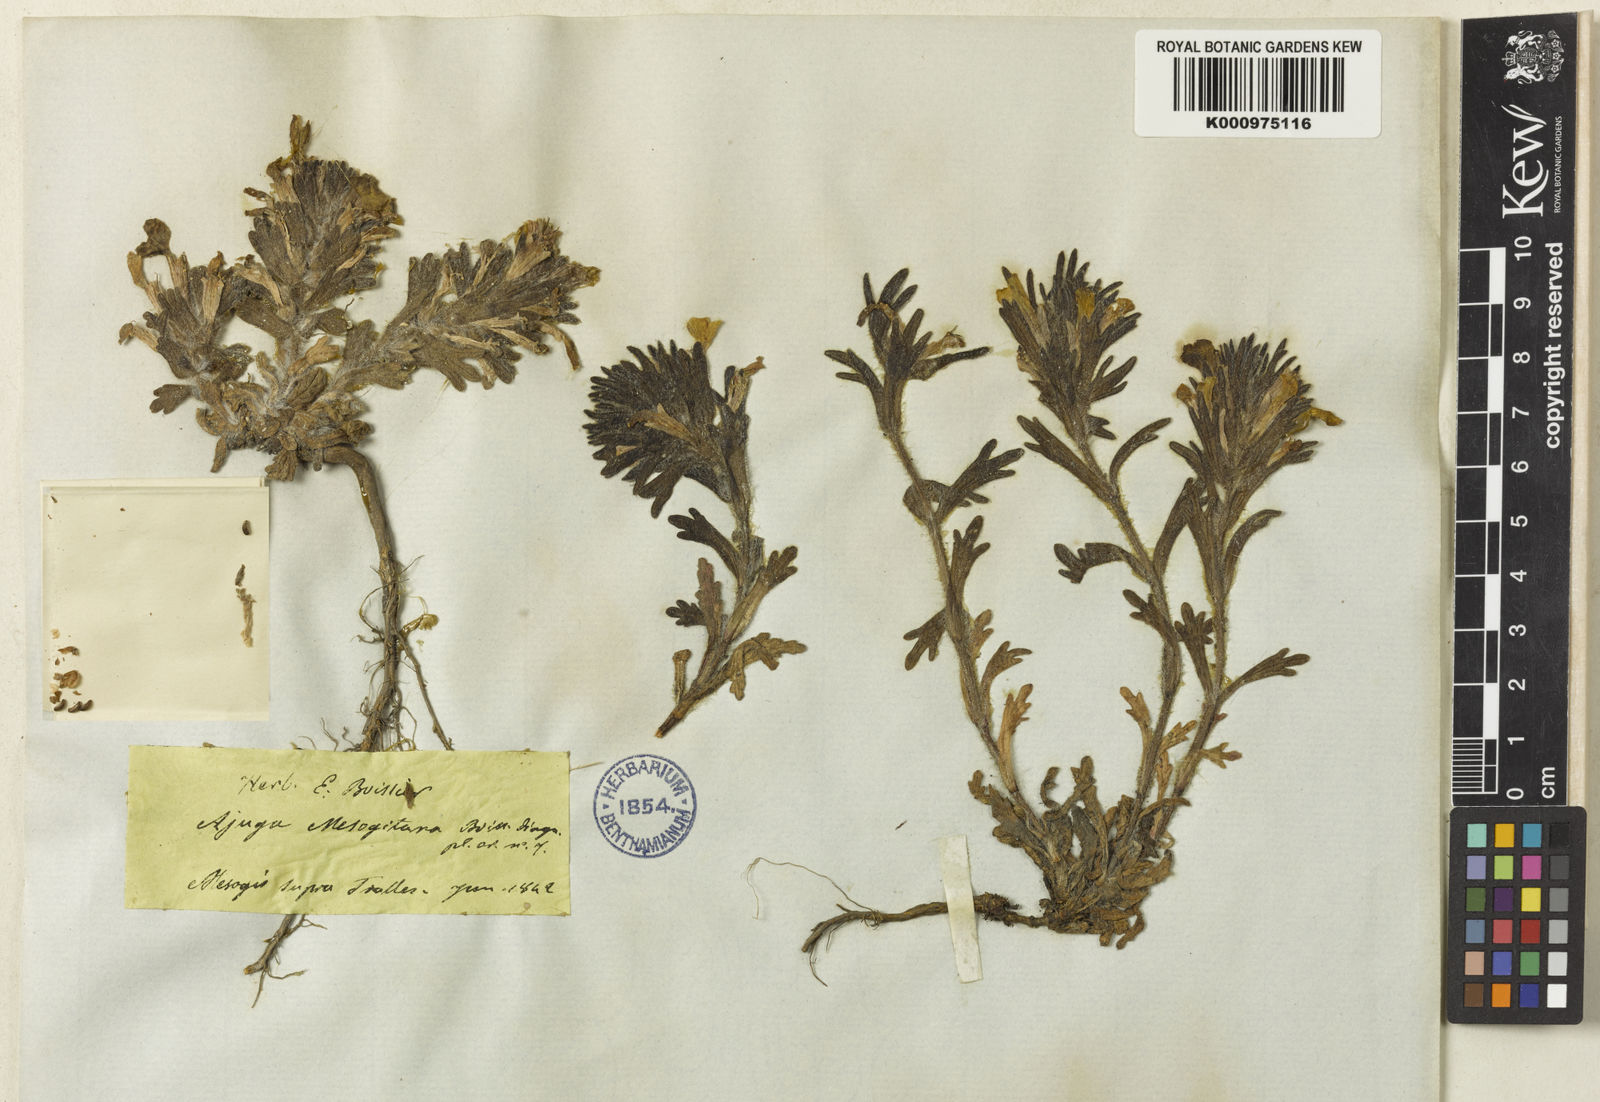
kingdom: Plantae
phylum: Tracheophyta
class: Magnoliopsida
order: Lamiales
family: Lamiaceae
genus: Ajuga
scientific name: Ajuga chamaepitys
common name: Ground-pine
